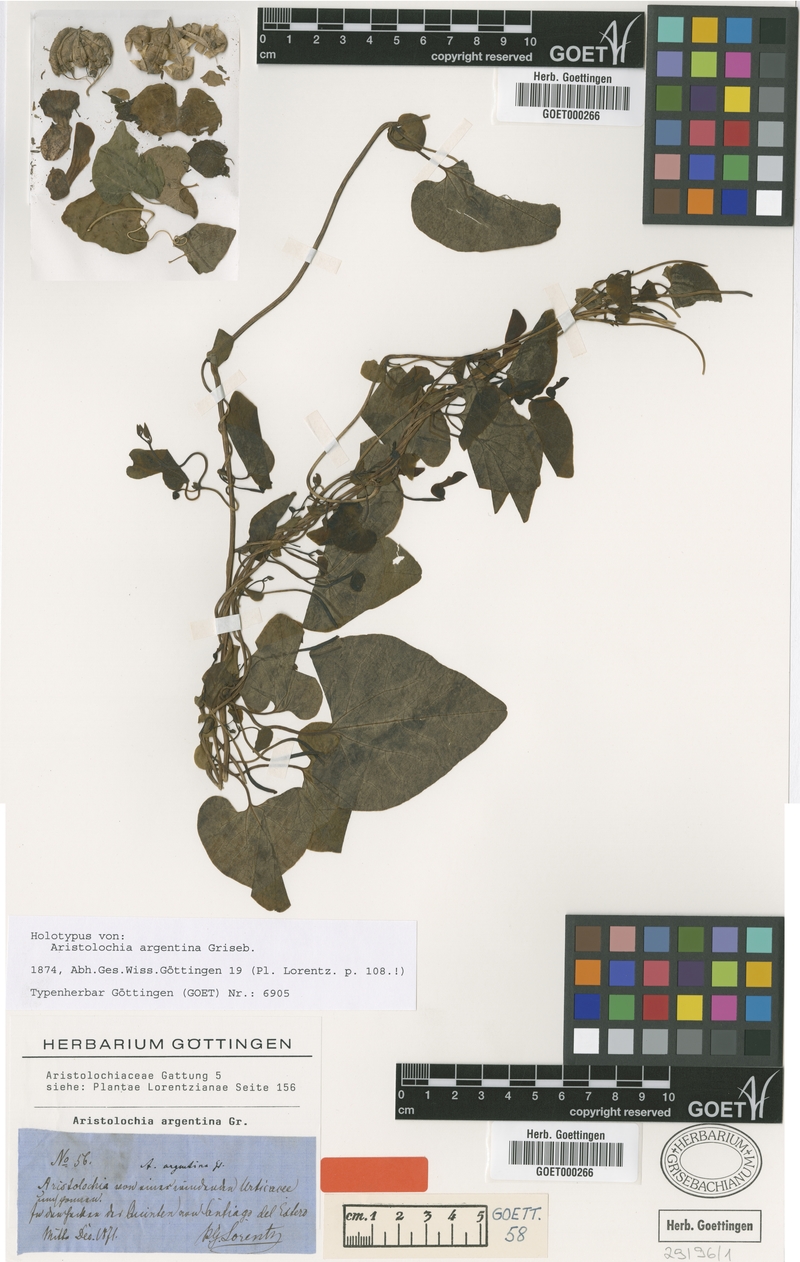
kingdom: Plantae
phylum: Tracheophyta
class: Magnoliopsida
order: Piperales
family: Aristolochiaceae
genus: Aristolochia
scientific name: Aristolochia argentina
